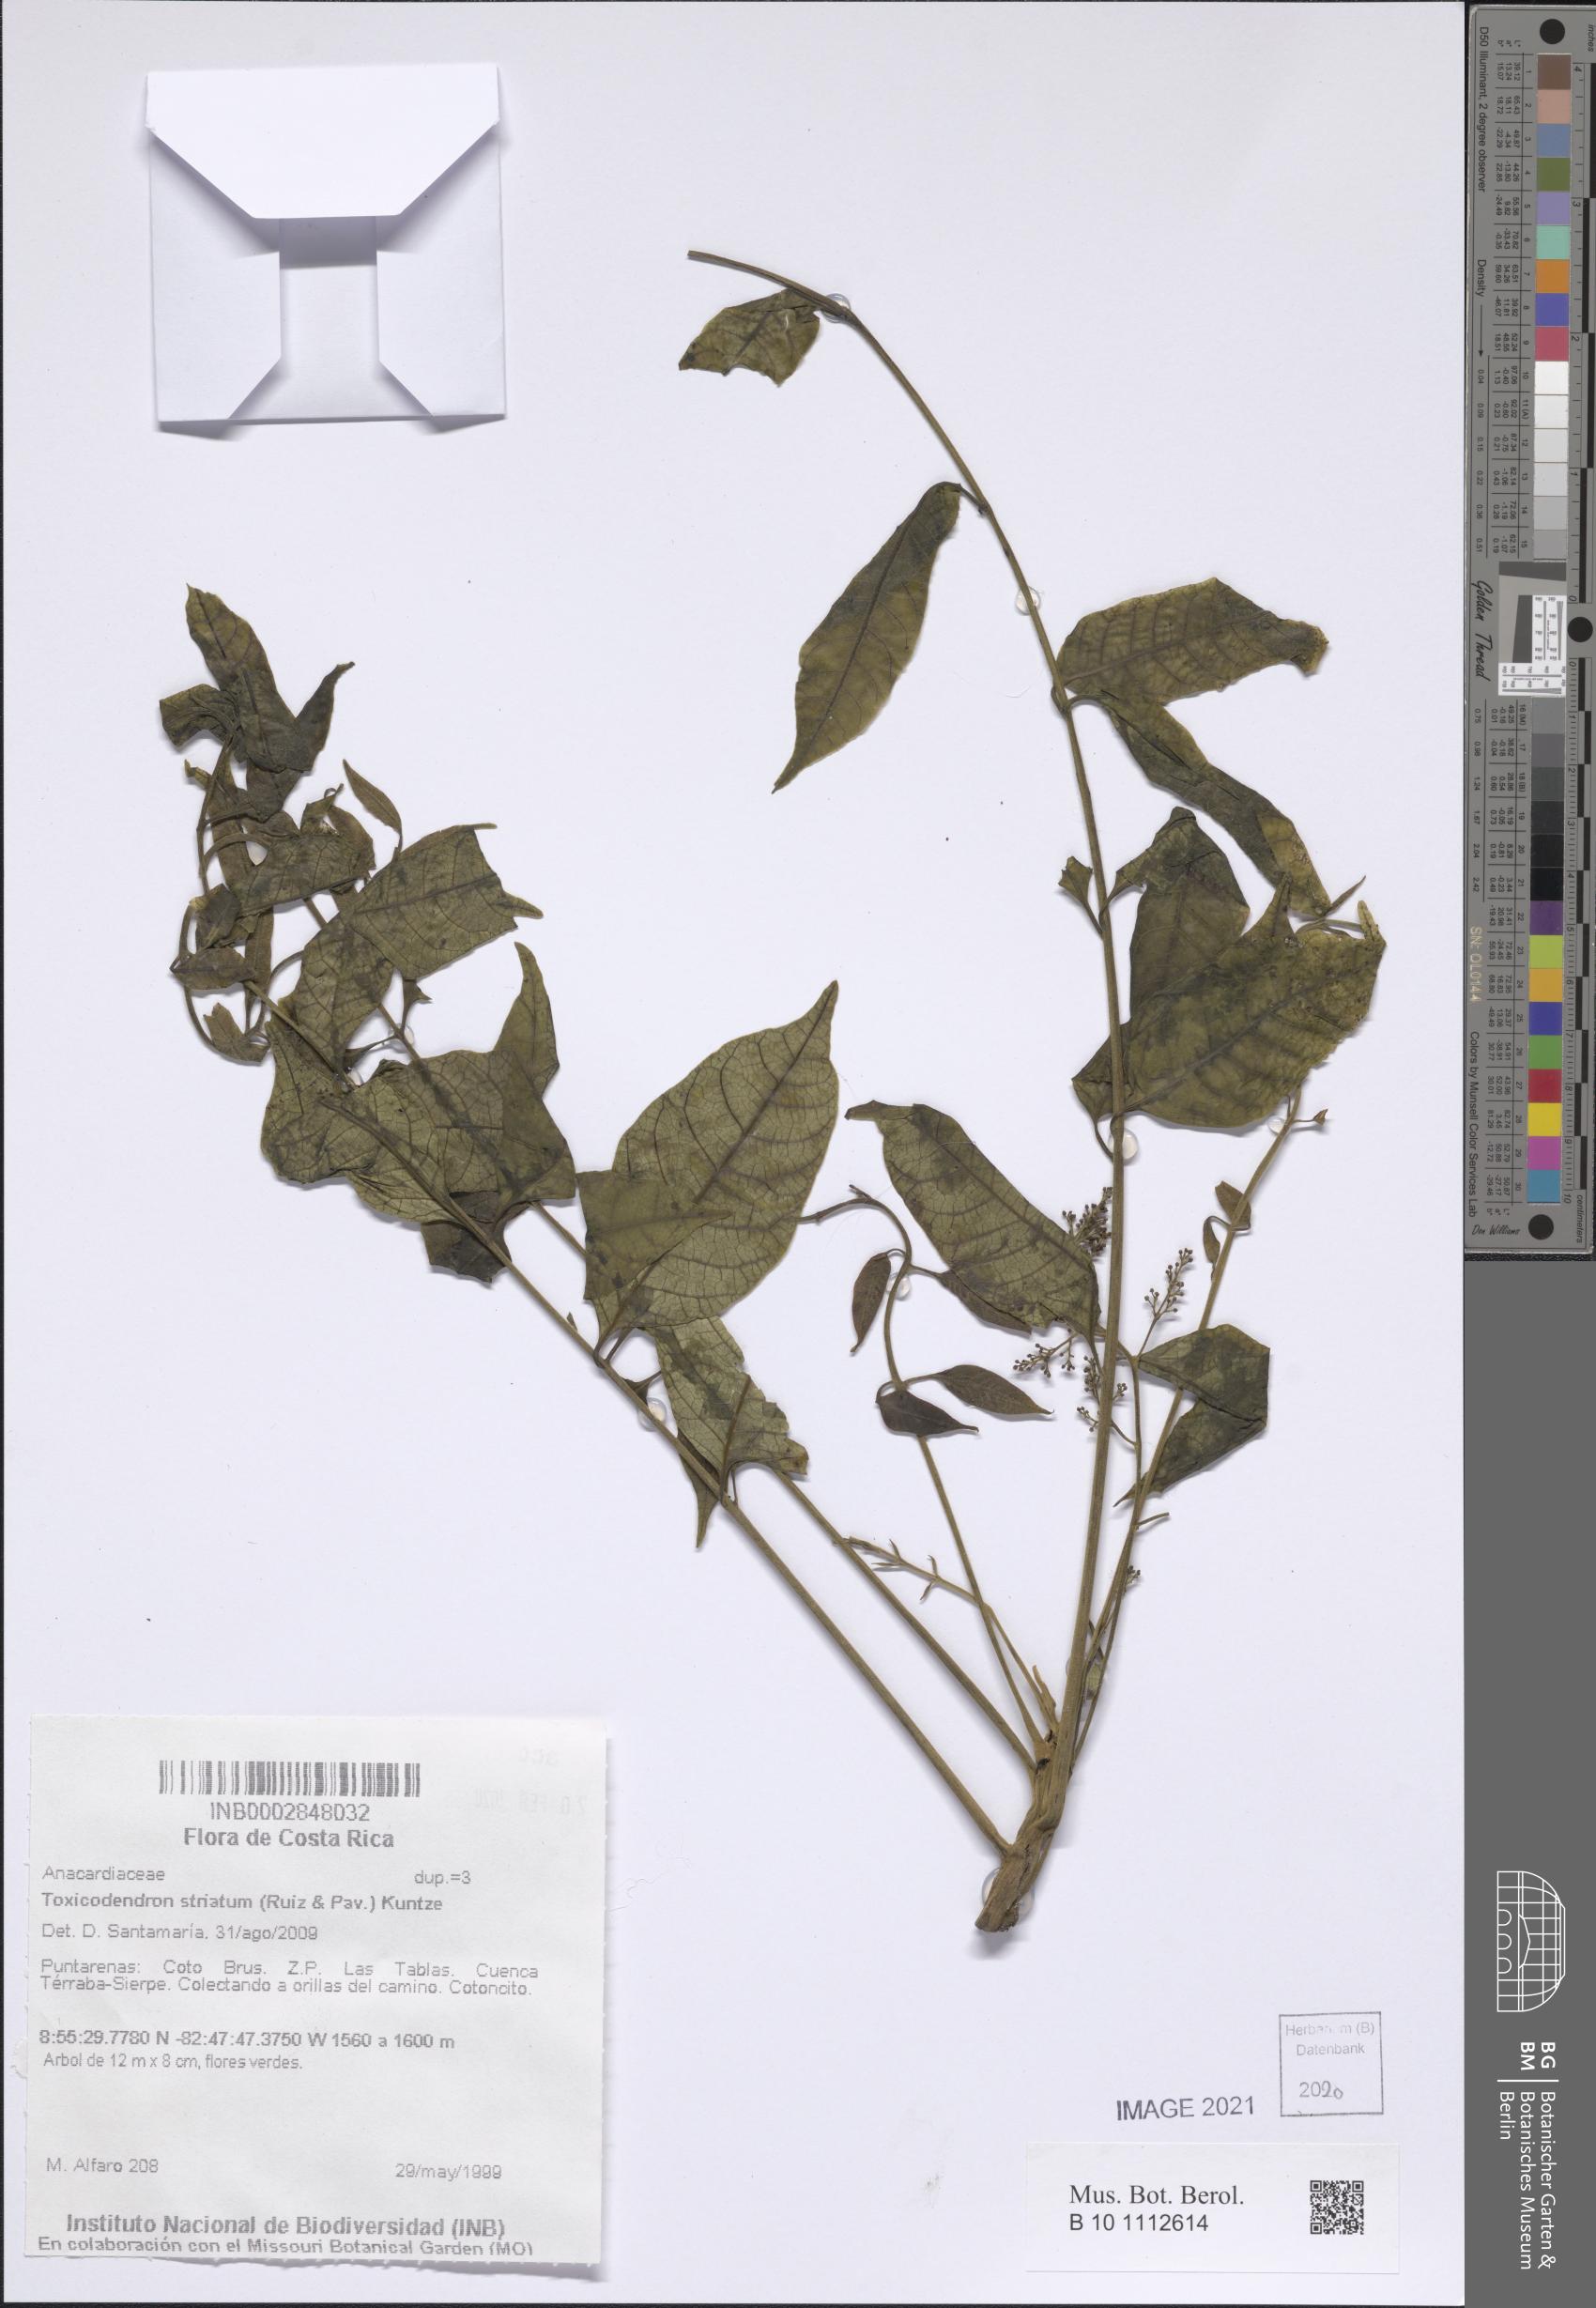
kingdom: Plantae
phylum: Tracheophyta
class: Magnoliopsida
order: Sapindales
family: Anacardiaceae
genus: Toxicodendron
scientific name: Toxicodendron striatum
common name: Sumac
